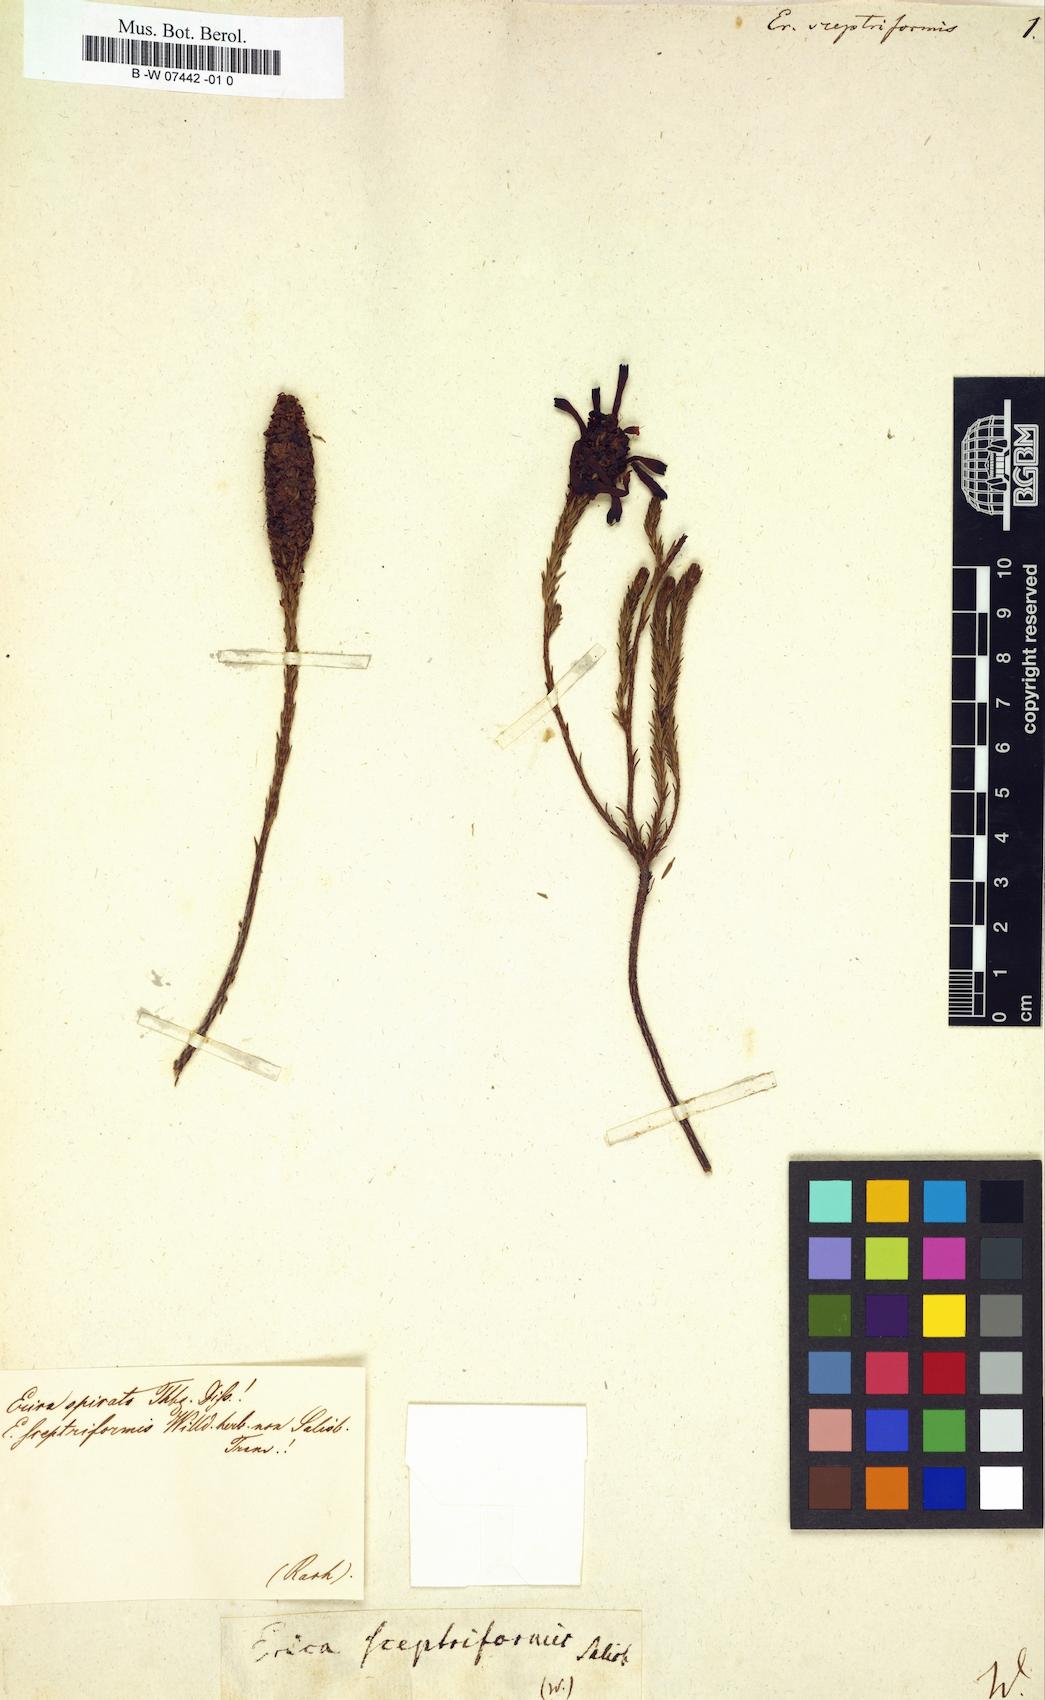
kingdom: Plantae
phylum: Tracheophyta
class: Magnoliopsida
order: Ericales
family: Ericaceae
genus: Erica
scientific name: Erica sessiliflora
